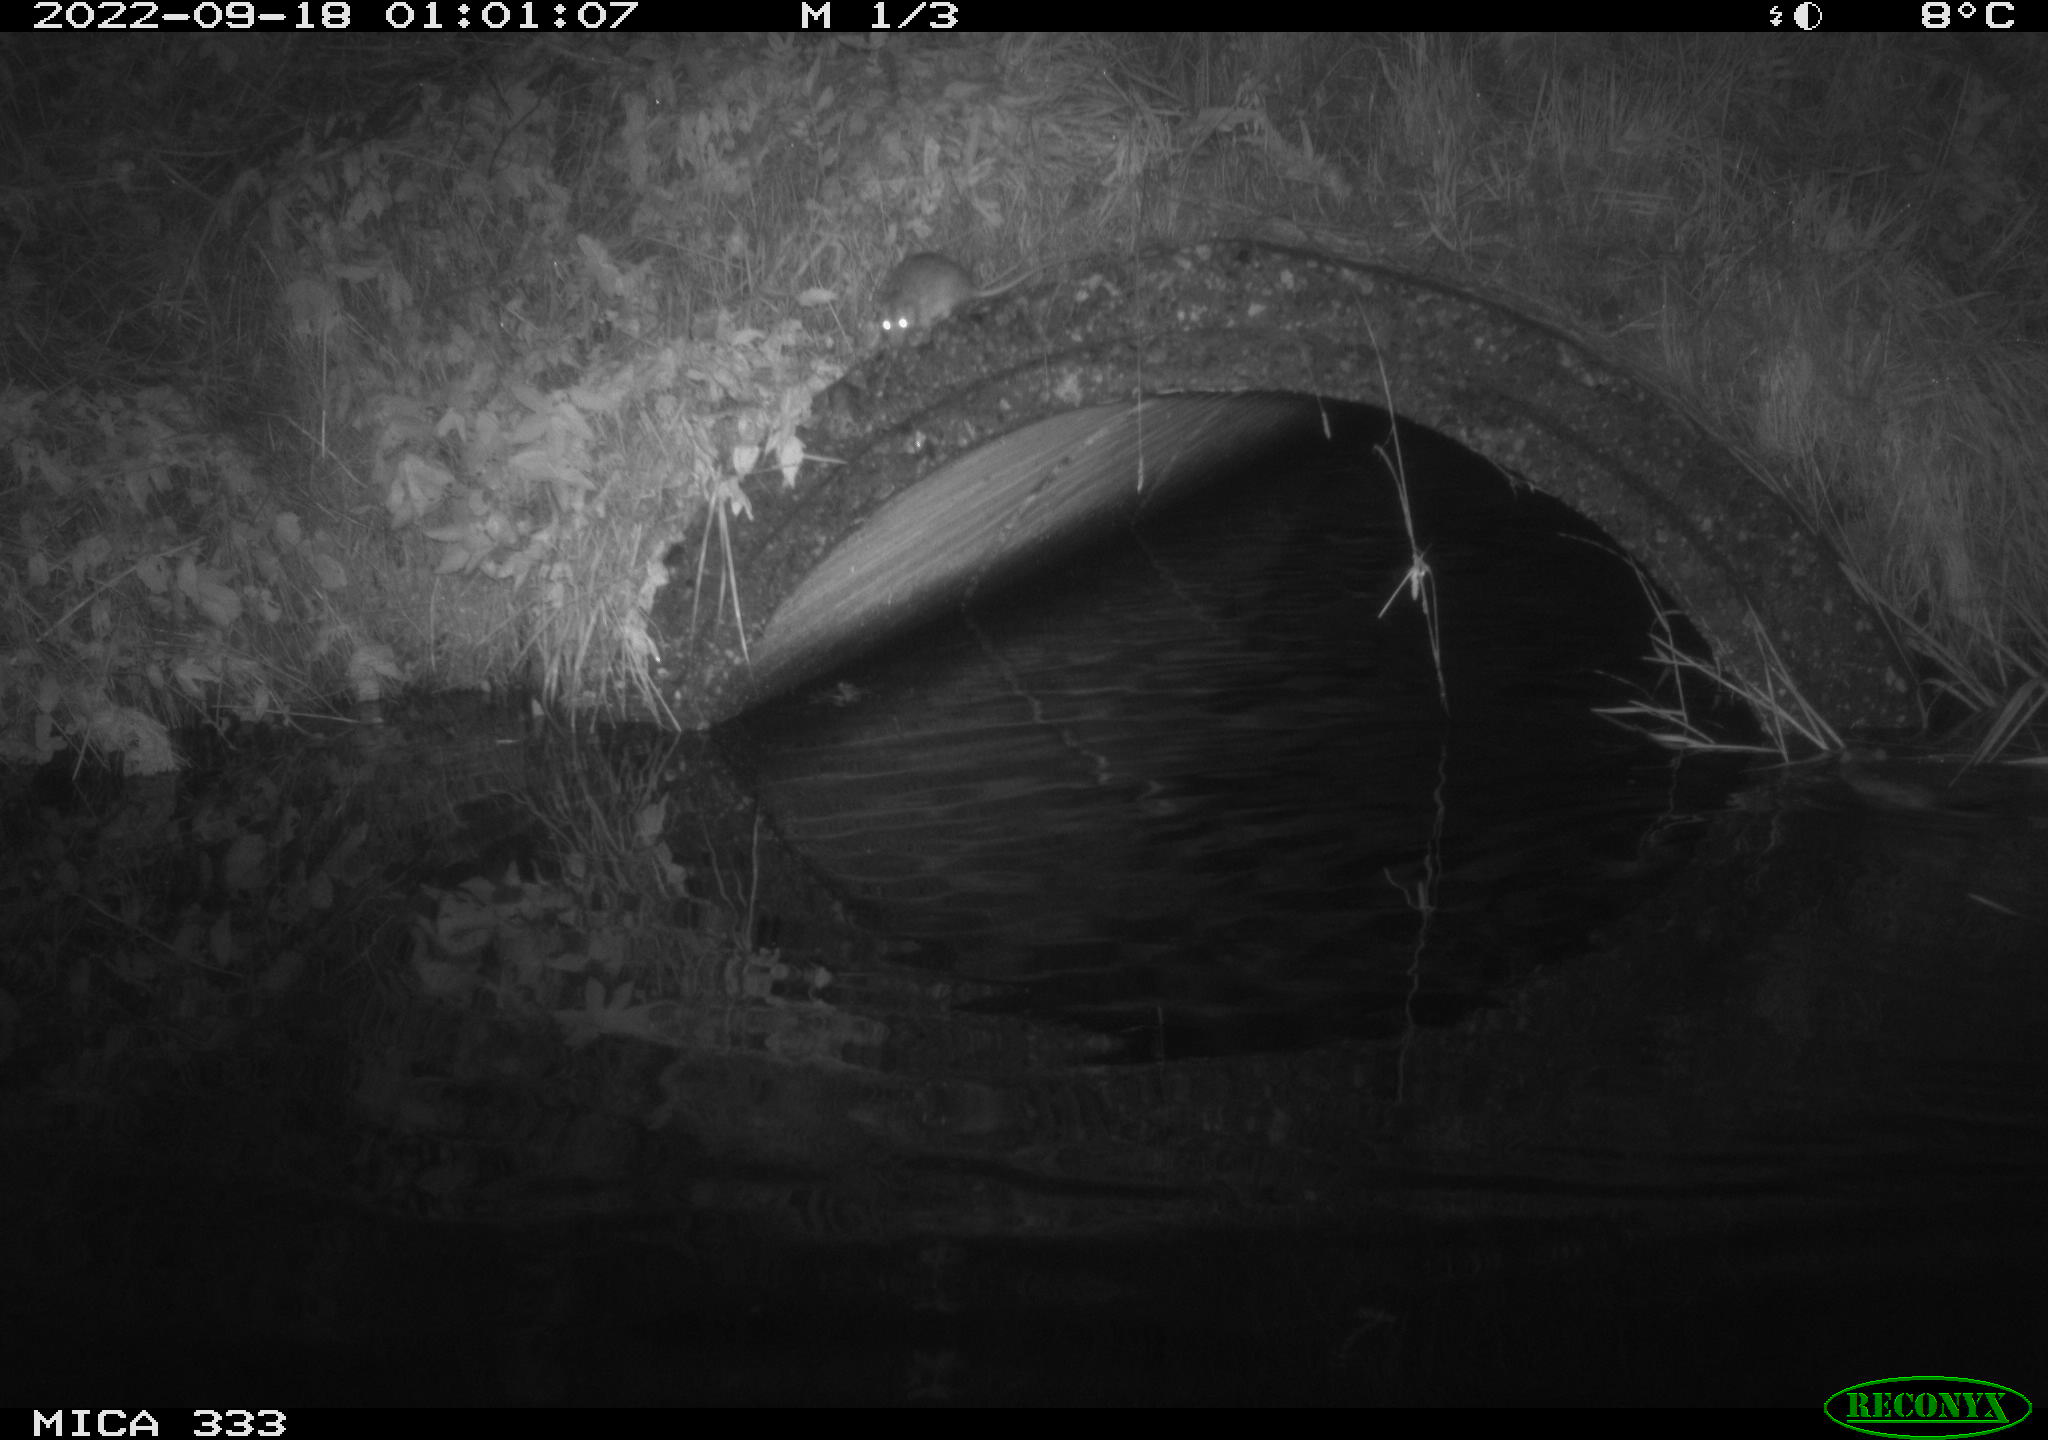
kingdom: Animalia
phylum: Chordata
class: Mammalia
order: Rodentia
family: Muridae
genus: Rattus
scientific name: Rattus norvegicus
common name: Brown rat
